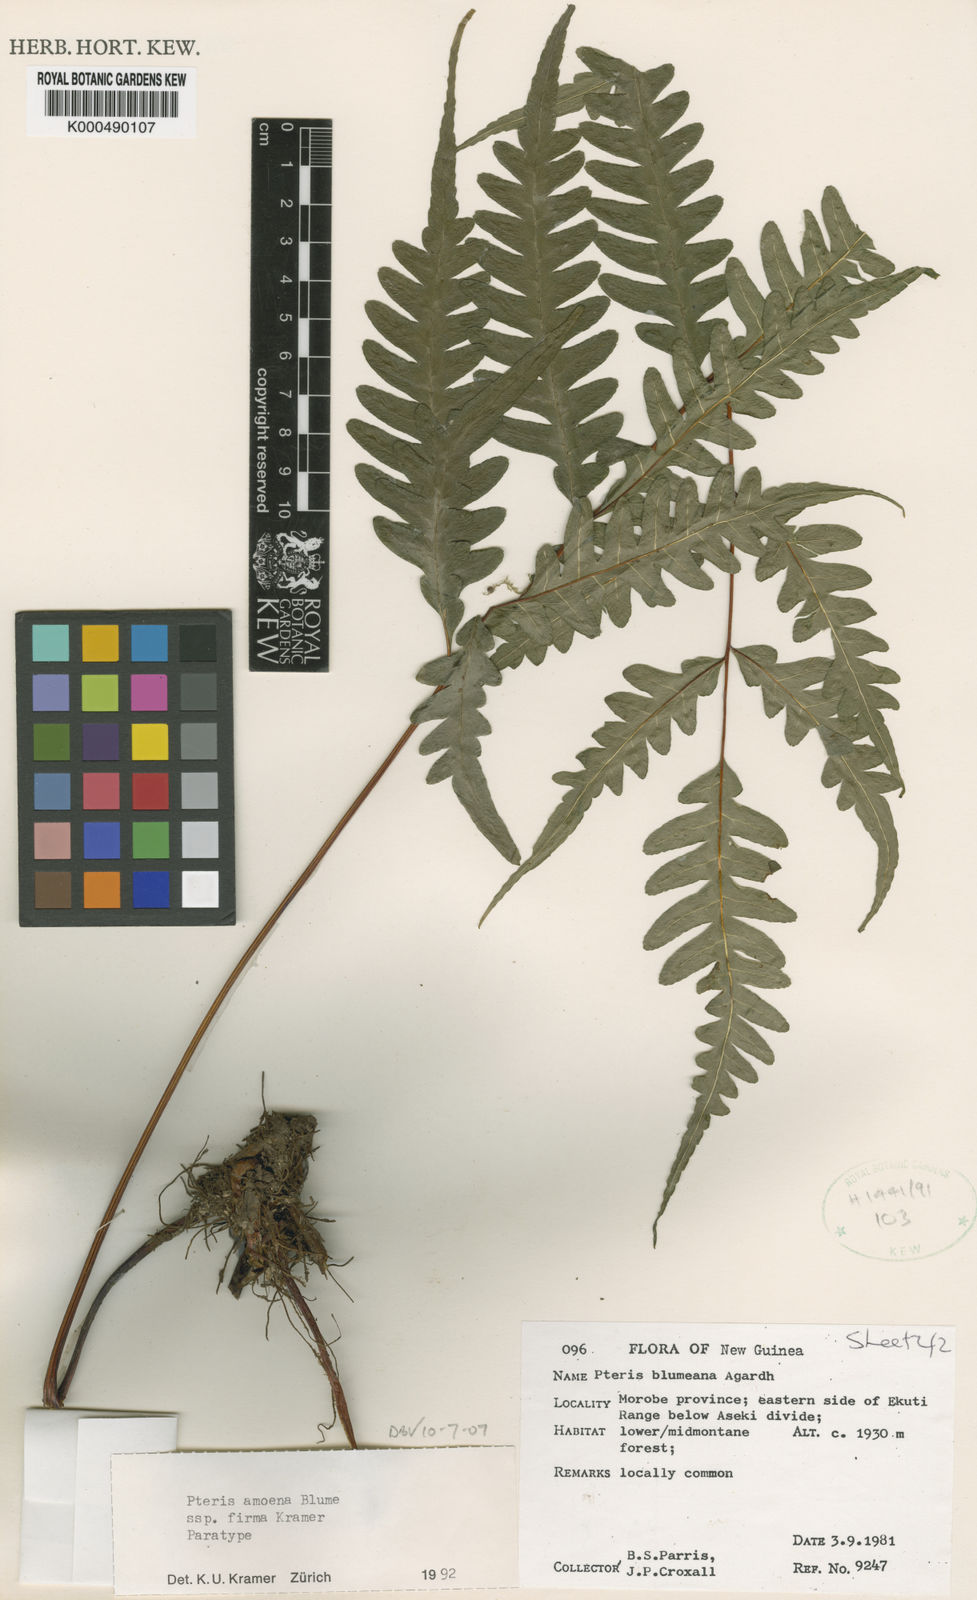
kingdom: Plantae
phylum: Tracheophyta
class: Polypodiopsida
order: Polypodiales
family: Pteridaceae
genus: Pteris
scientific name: Pteris amoena
